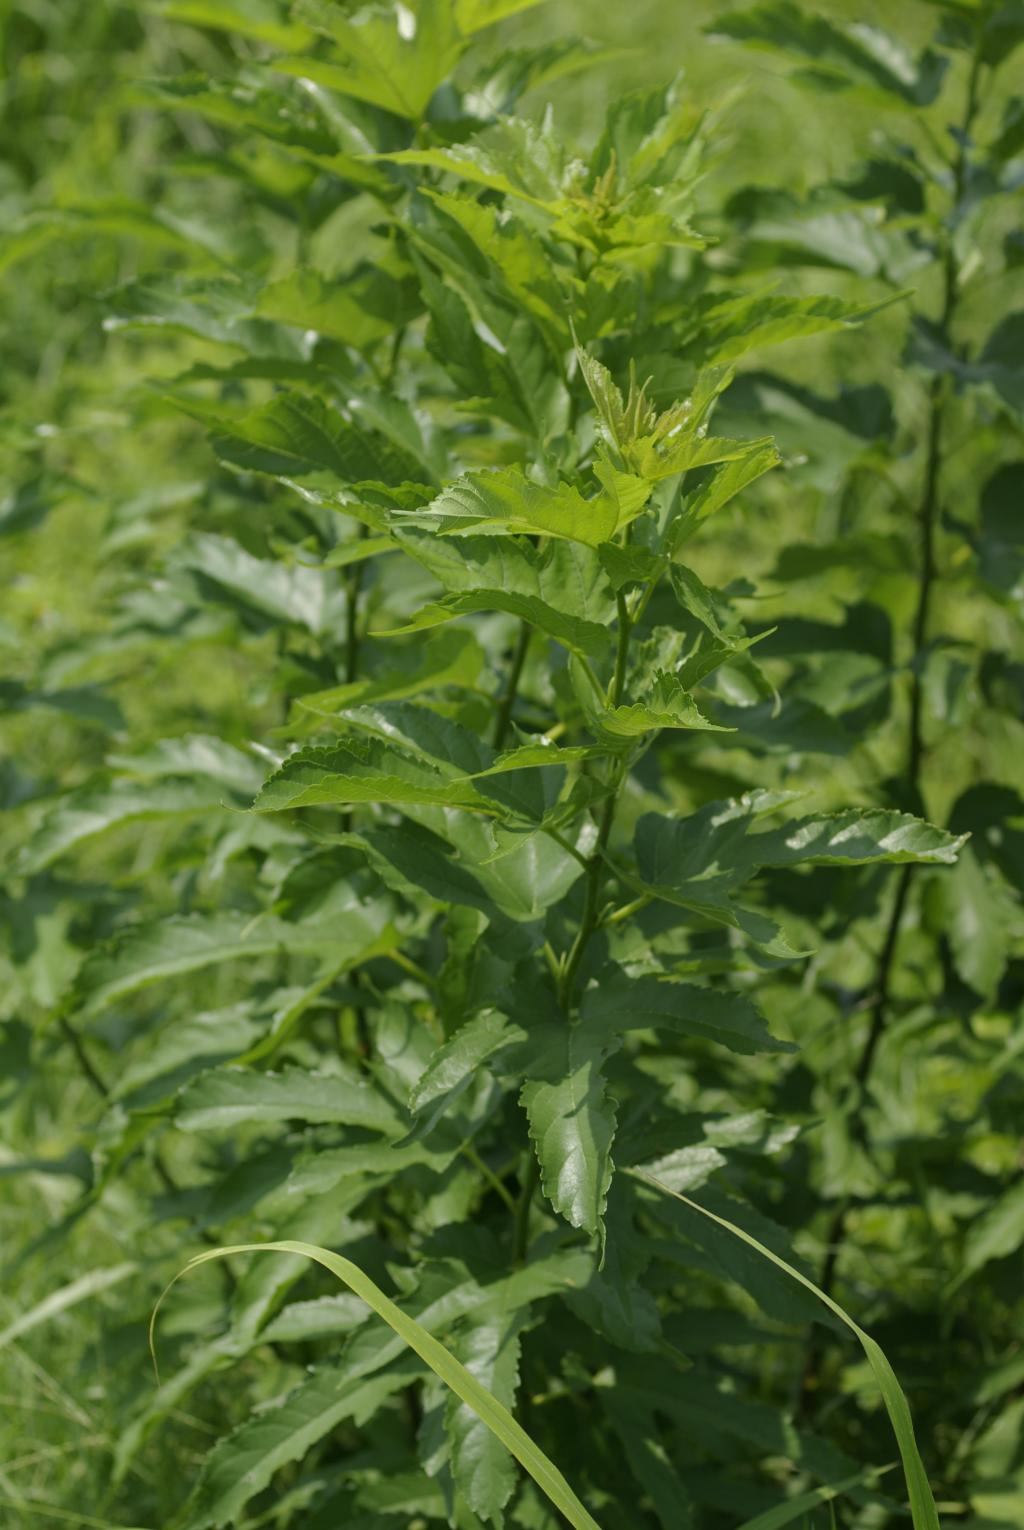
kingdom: Plantae
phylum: Tracheophyta
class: Magnoliopsida
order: Rosales
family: Moraceae
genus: Broussonetia
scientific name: Broussonetia papyrifera
